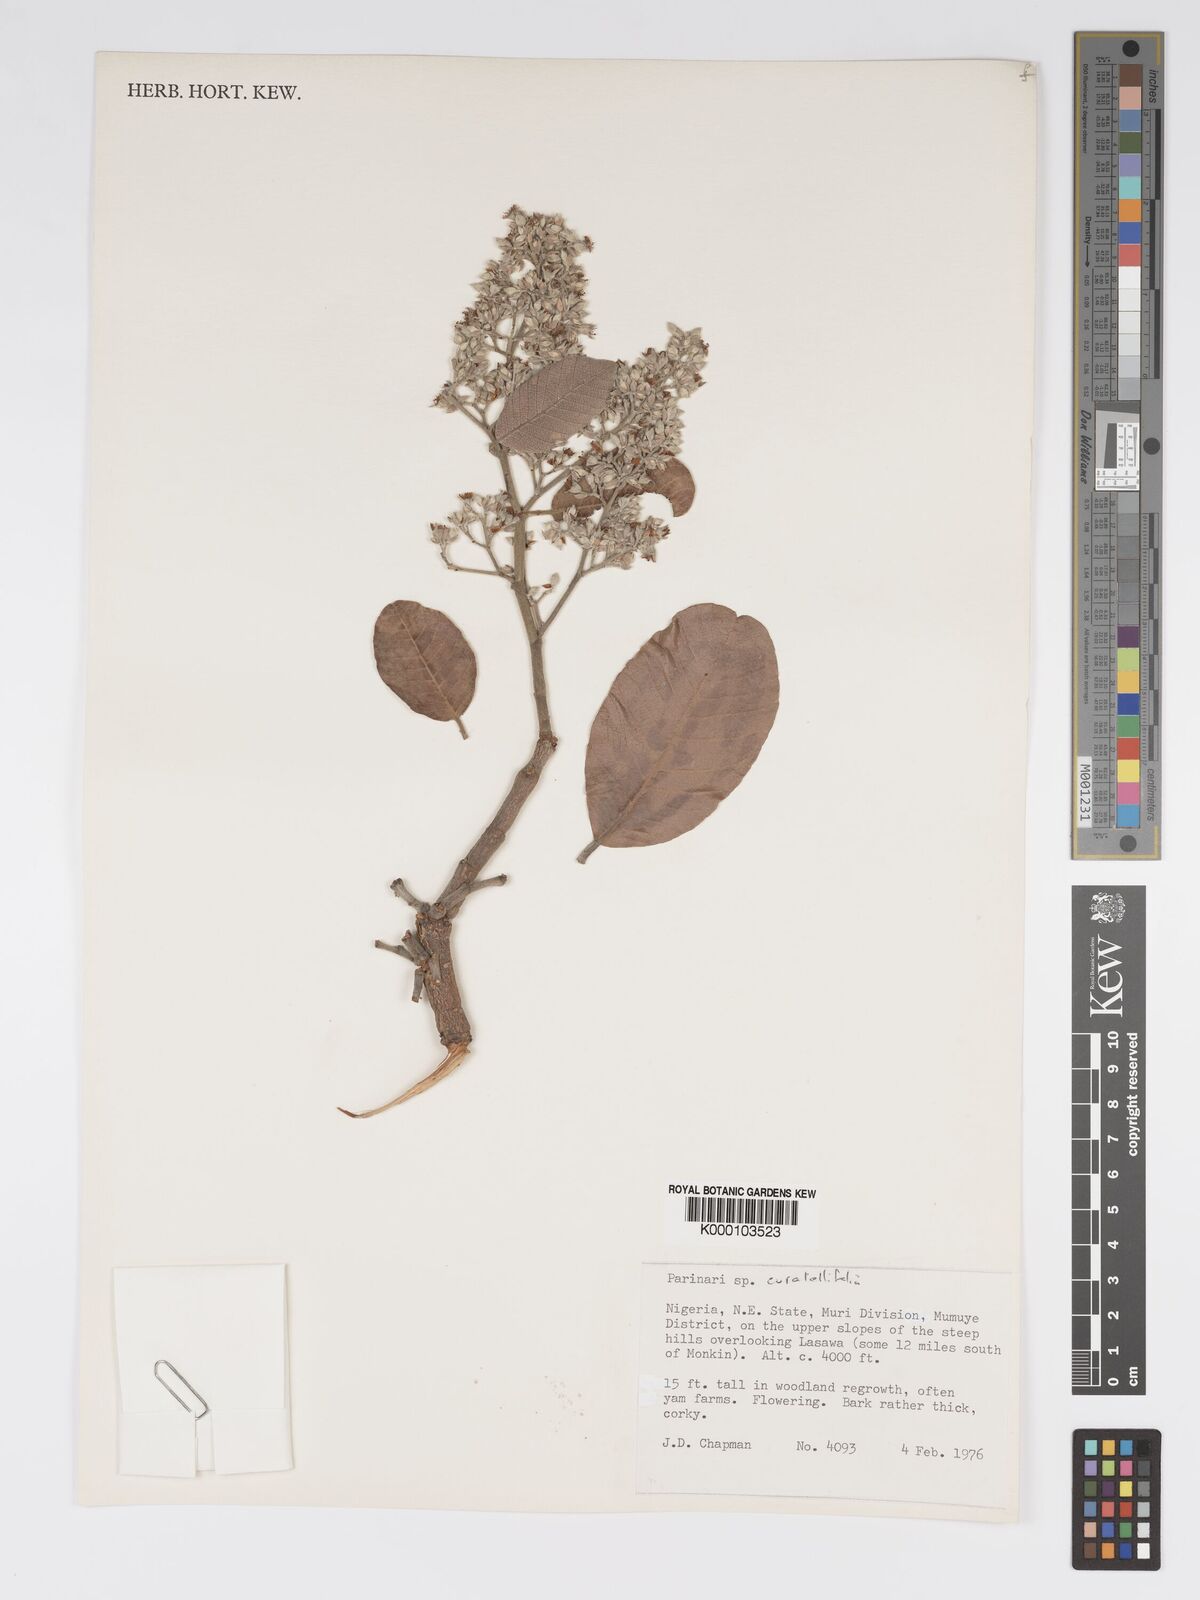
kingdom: Plantae
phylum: Tracheophyta
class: Magnoliopsida
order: Malpighiales
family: Chrysobalanaceae
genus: Parinari
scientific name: Parinari curatellifolia
